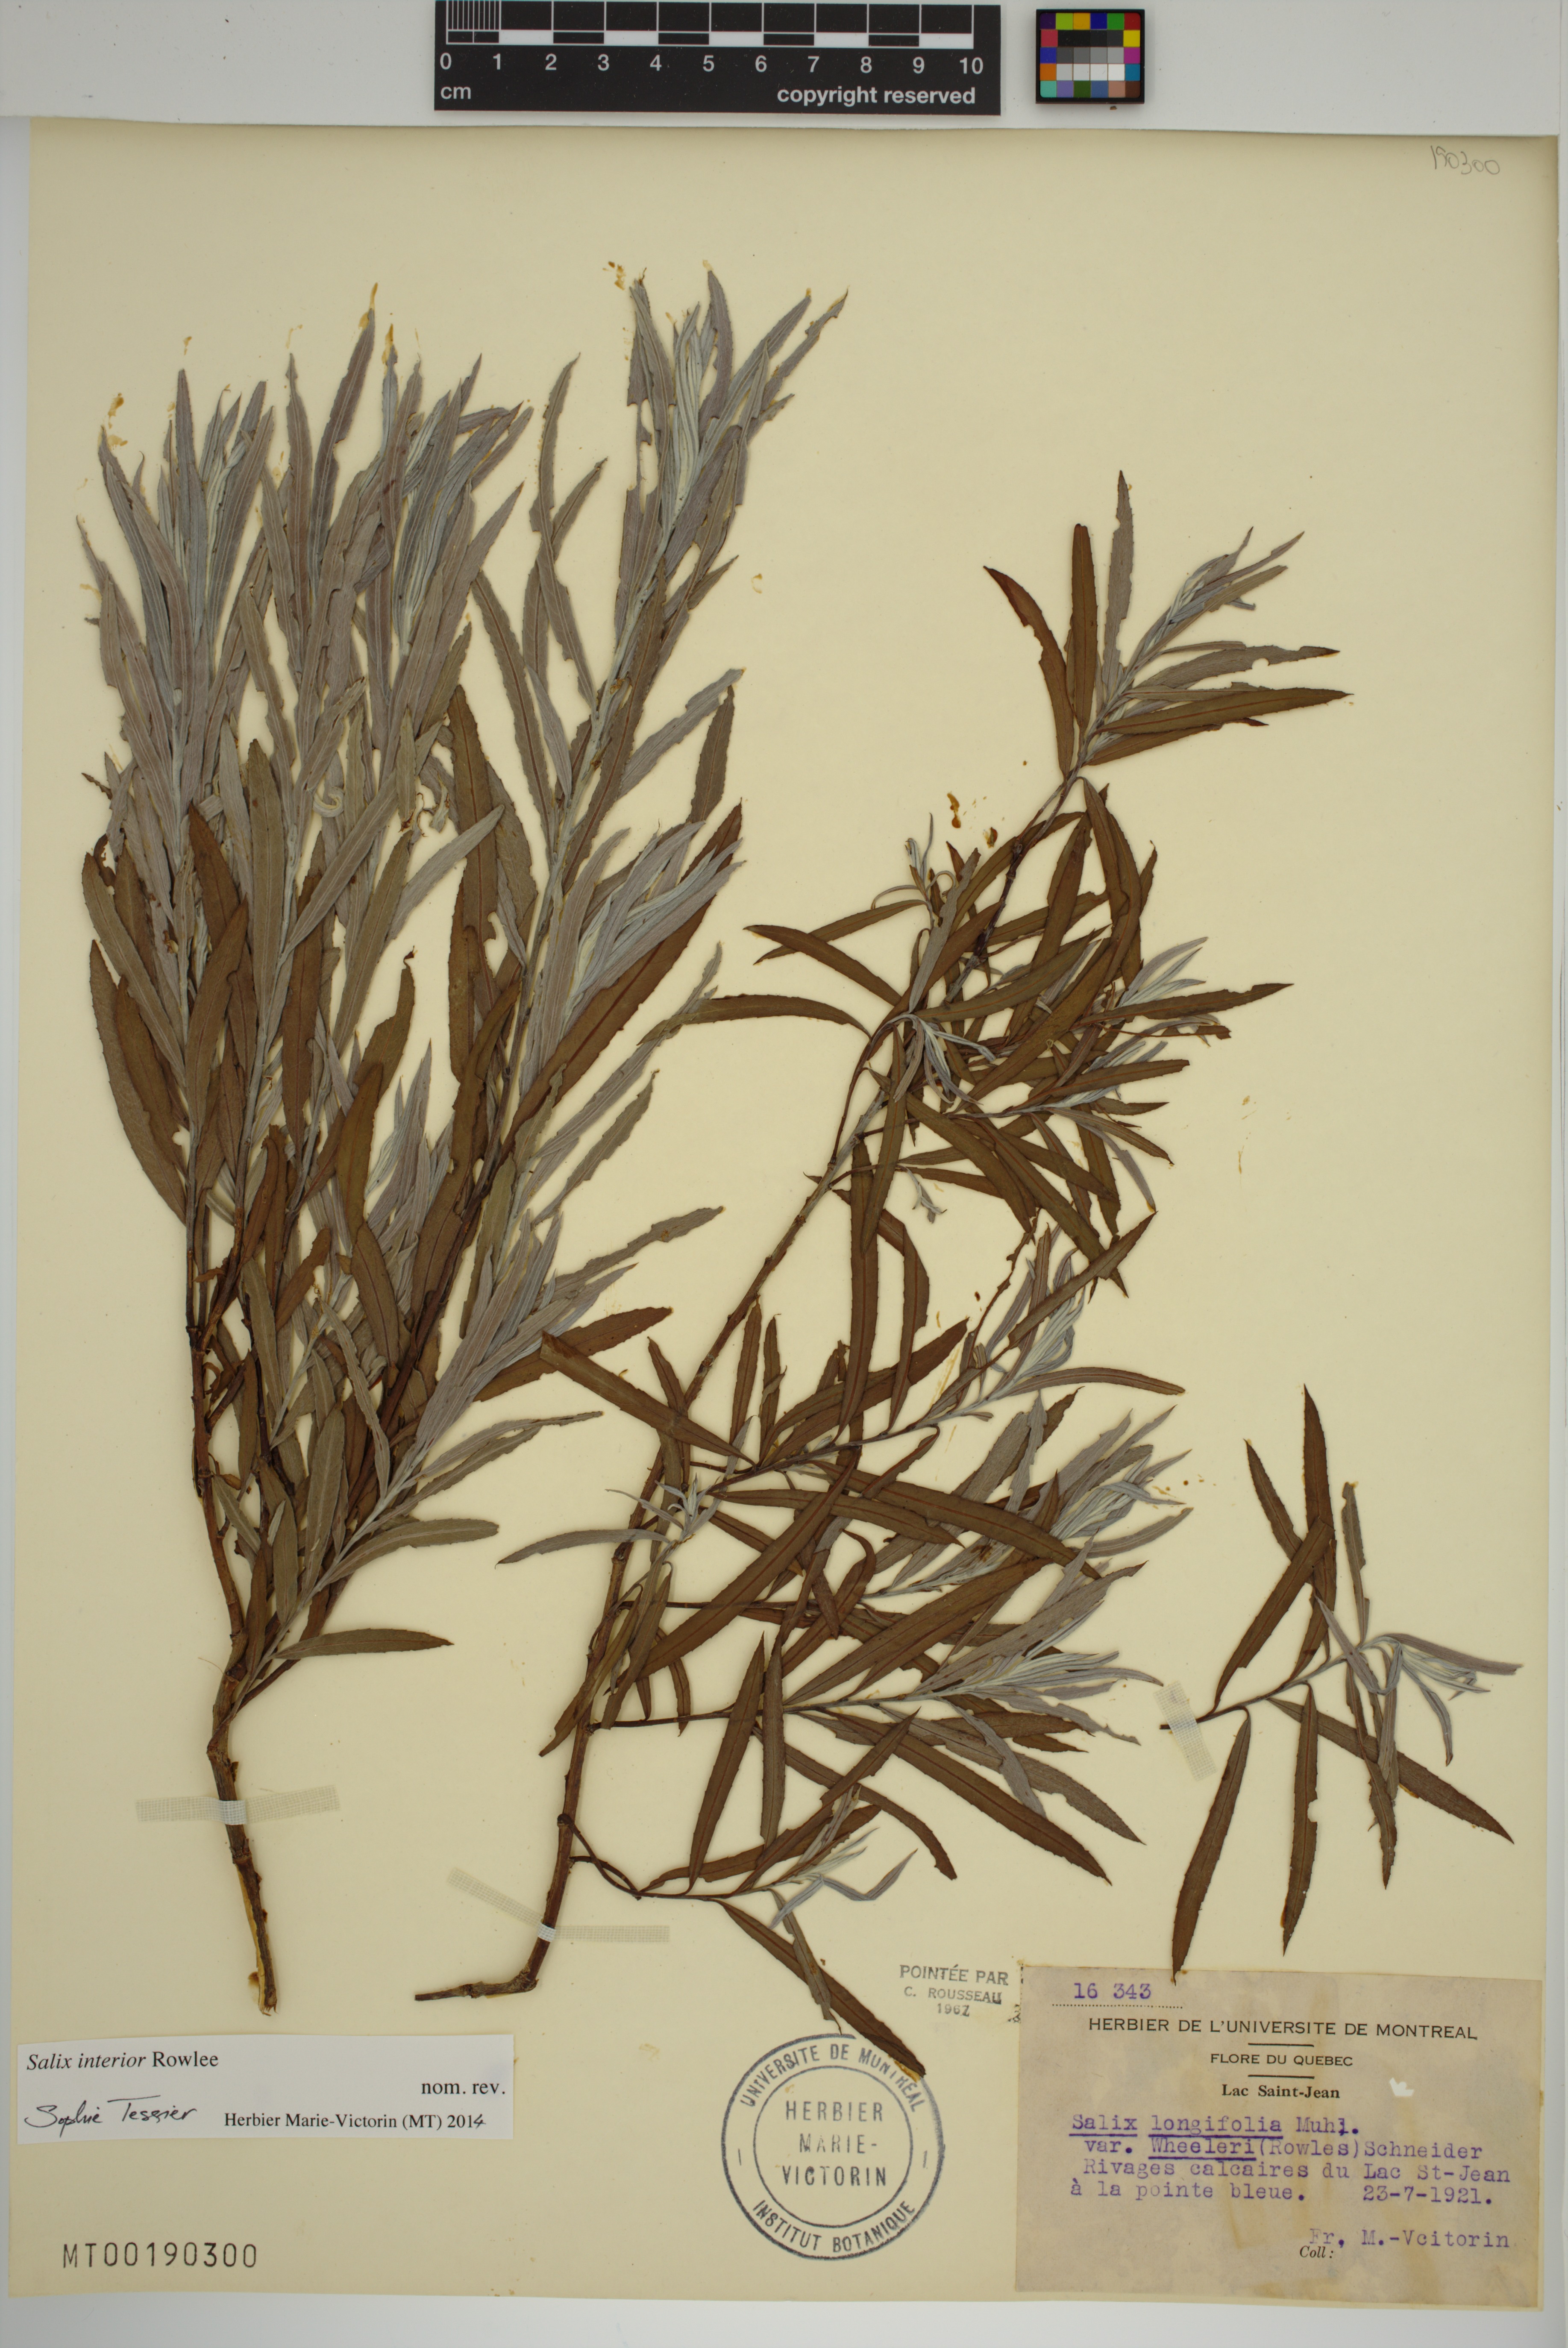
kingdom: Plantae
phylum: Tracheophyta
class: Magnoliopsida
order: Malpighiales
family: Salicaceae
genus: Salix
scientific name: Salix interior
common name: Sandbar willow
